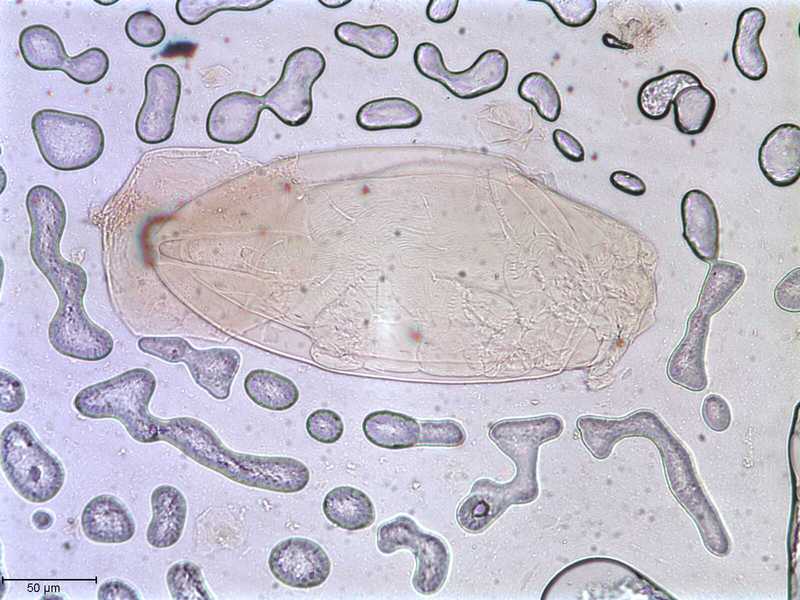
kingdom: Animalia
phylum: Arthropoda
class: Arachnida
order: Trombidiformes
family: Psorergatidae
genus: Psorobia
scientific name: Psorobia mustelae
